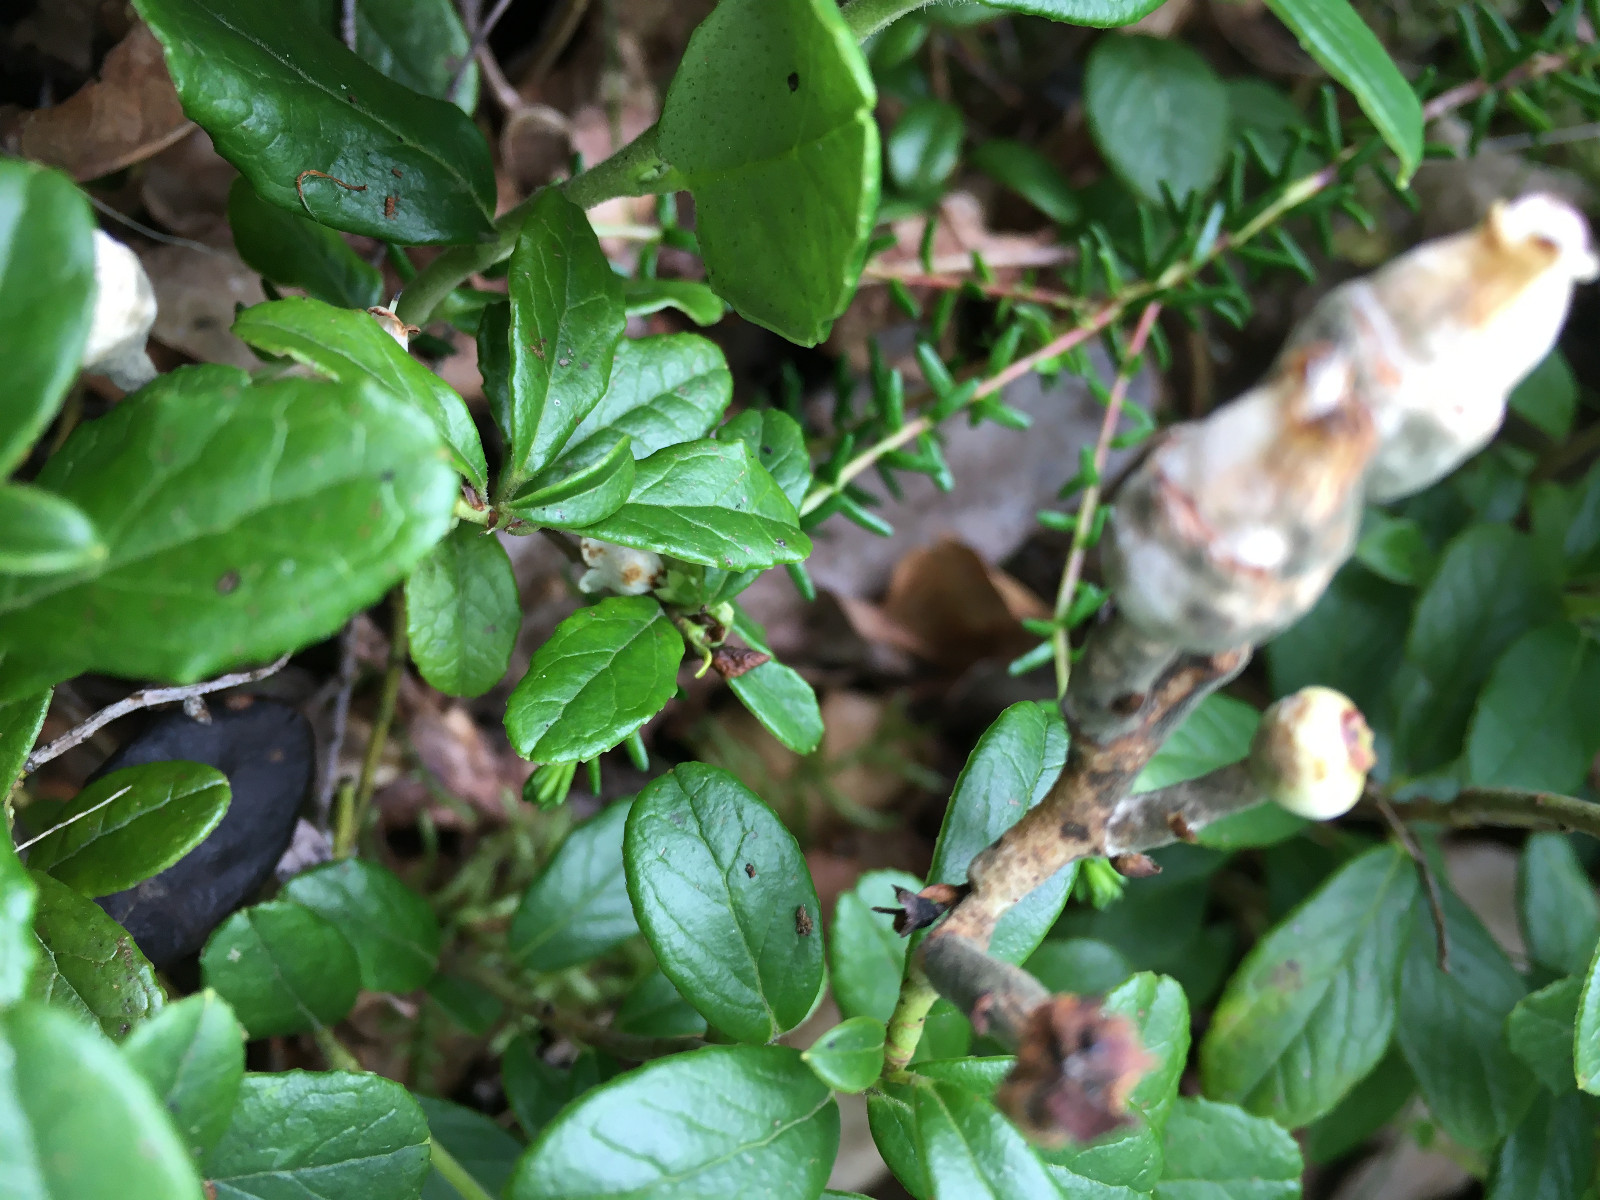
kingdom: Fungi
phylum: Basidiomycota
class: Exobasidiomycetes
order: Exobasidiales
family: Exobasidiaceae
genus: Exobasidium
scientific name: Exobasidium vaccinii
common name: tyttebærblad-bøllesvamp
